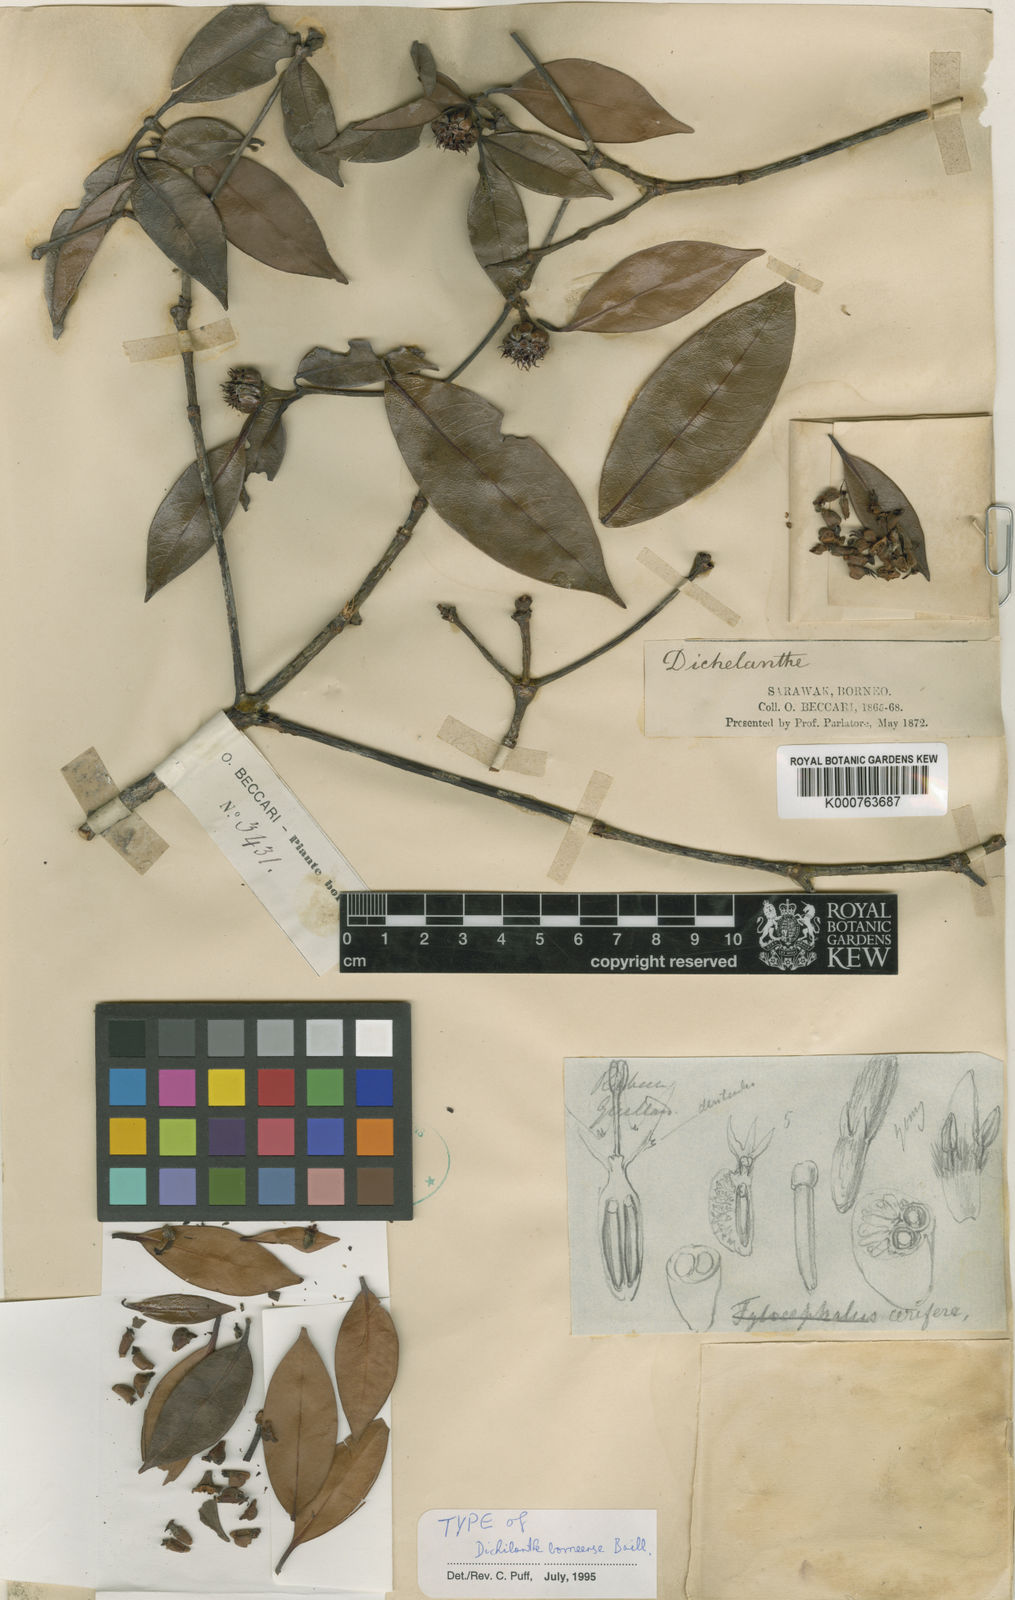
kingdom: Plantae
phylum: Tracheophyta
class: Magnoliopsida
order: Gentianales
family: Rubiaceae
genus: Dichilanthe
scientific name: Dichilanthe borneensis
